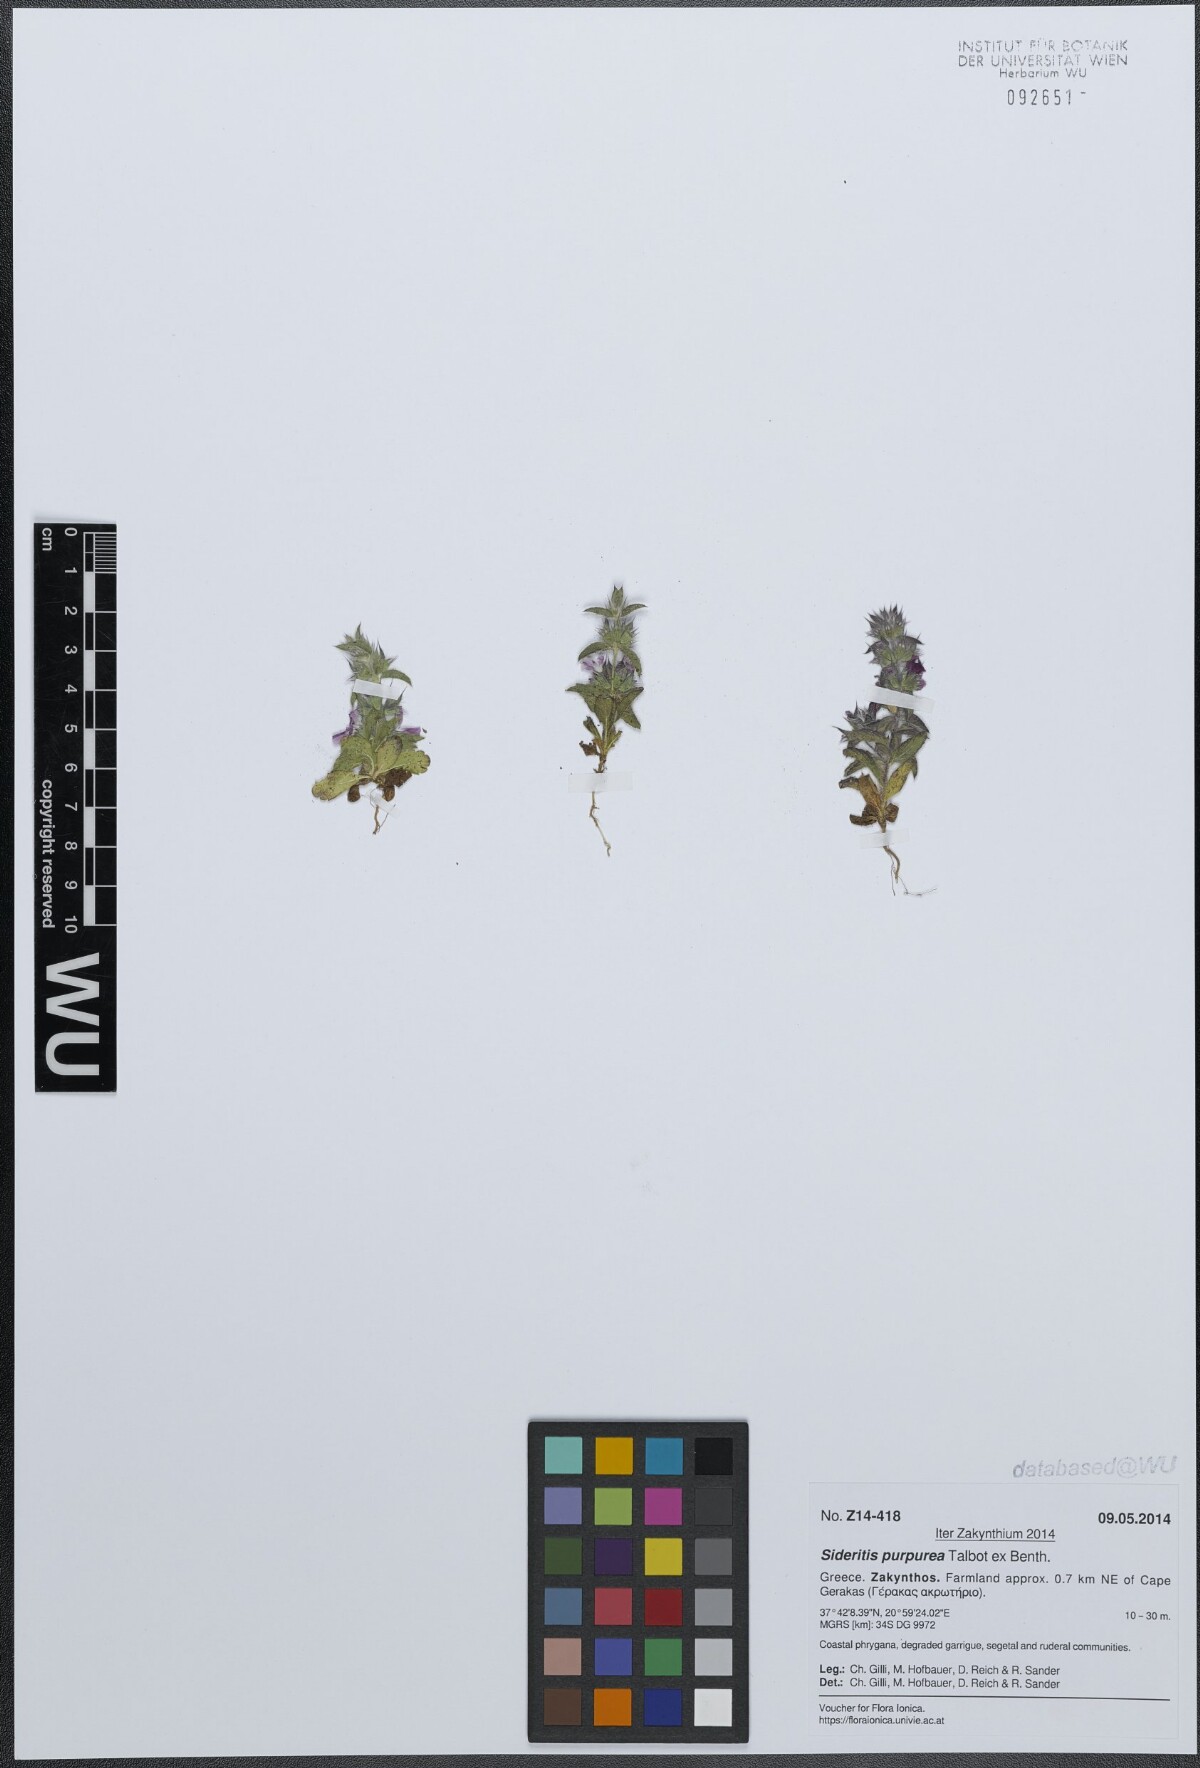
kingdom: Plantae
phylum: Tracheophyta
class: Magnoliopsida
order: Lamiales
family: Lamiaceae
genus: Sideritis
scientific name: Sideritis romana
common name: Simplebeak ironwort
